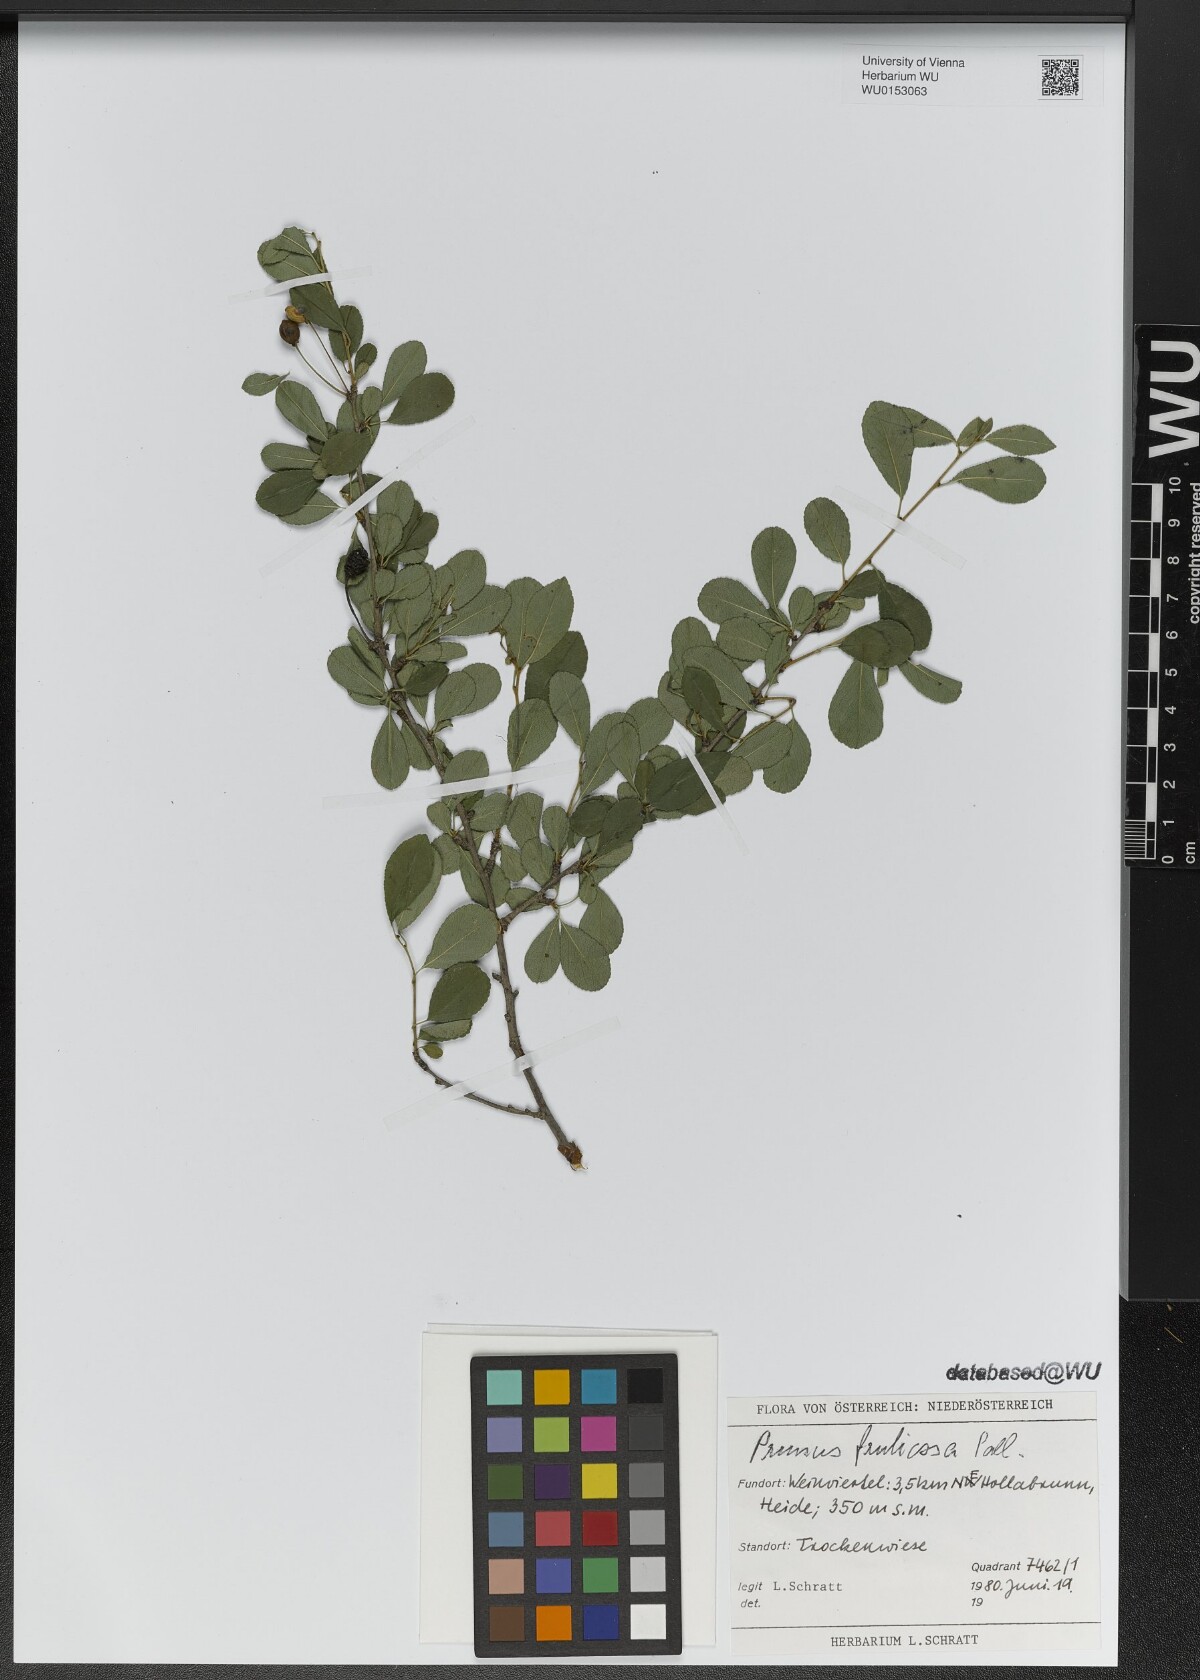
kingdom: Plantae
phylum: Tracheophyta
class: Magnoliopsida
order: Rosales
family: Rosaceae
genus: Prunus
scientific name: Prunus fruticosa
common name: European dwarf cherry
